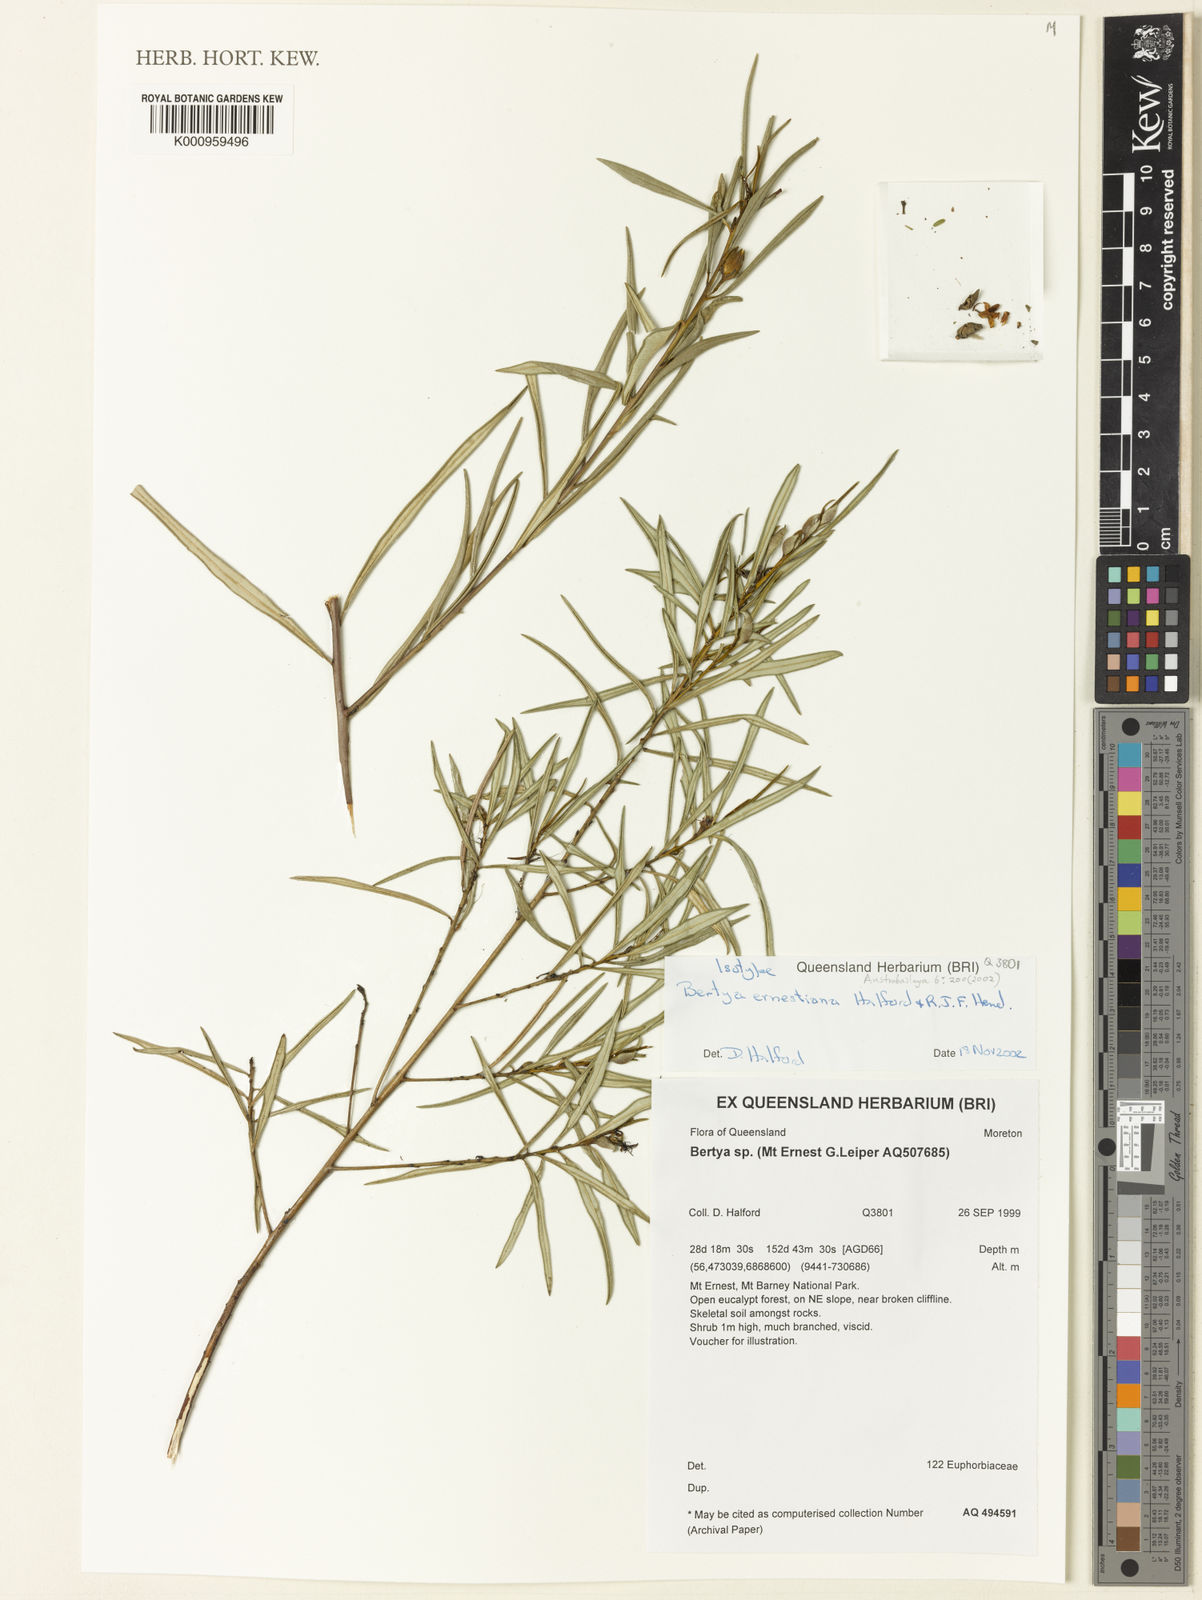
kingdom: Plantae
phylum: Tracheophyta
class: Magnoliopsida
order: Malpighiales
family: Euphorbiaceae
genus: Bertya
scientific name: Bertya ernestiana
